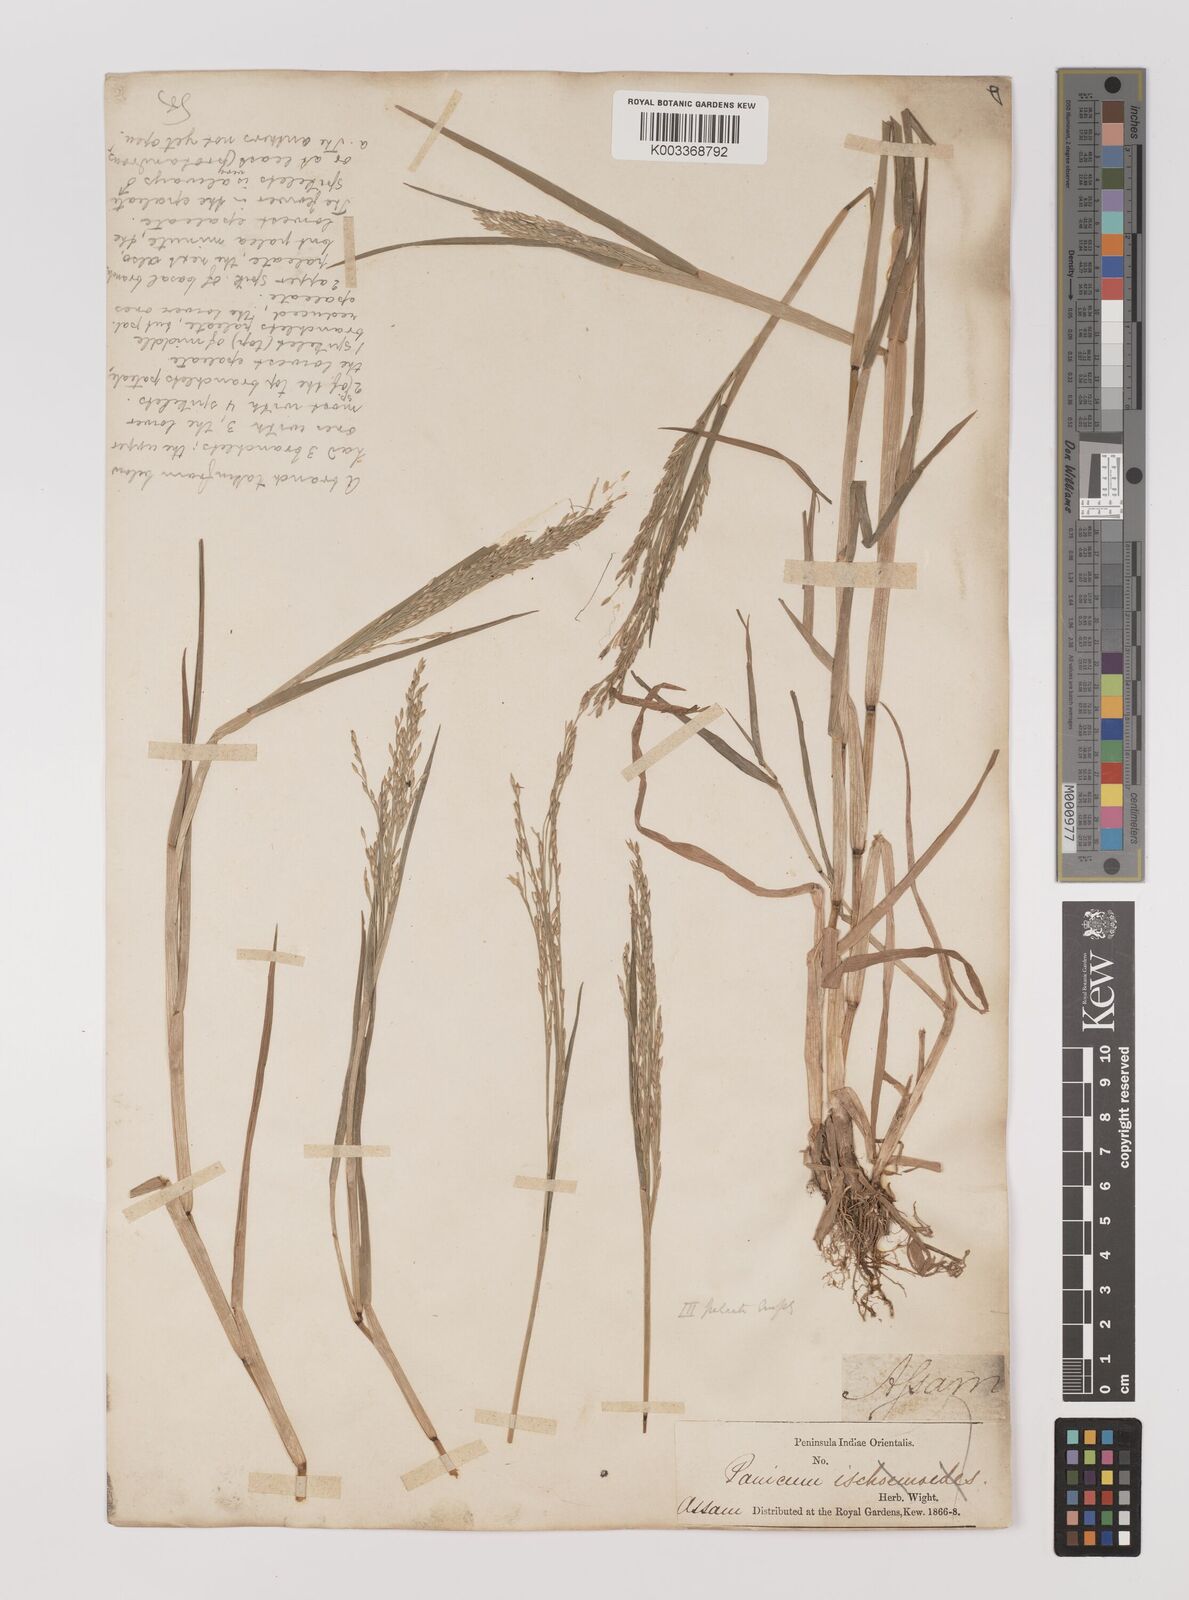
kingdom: Plantae
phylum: Tracheophyta
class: Liliopsida
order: Poales
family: Poaceae
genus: Louisiella
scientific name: Louisiella paludosa
